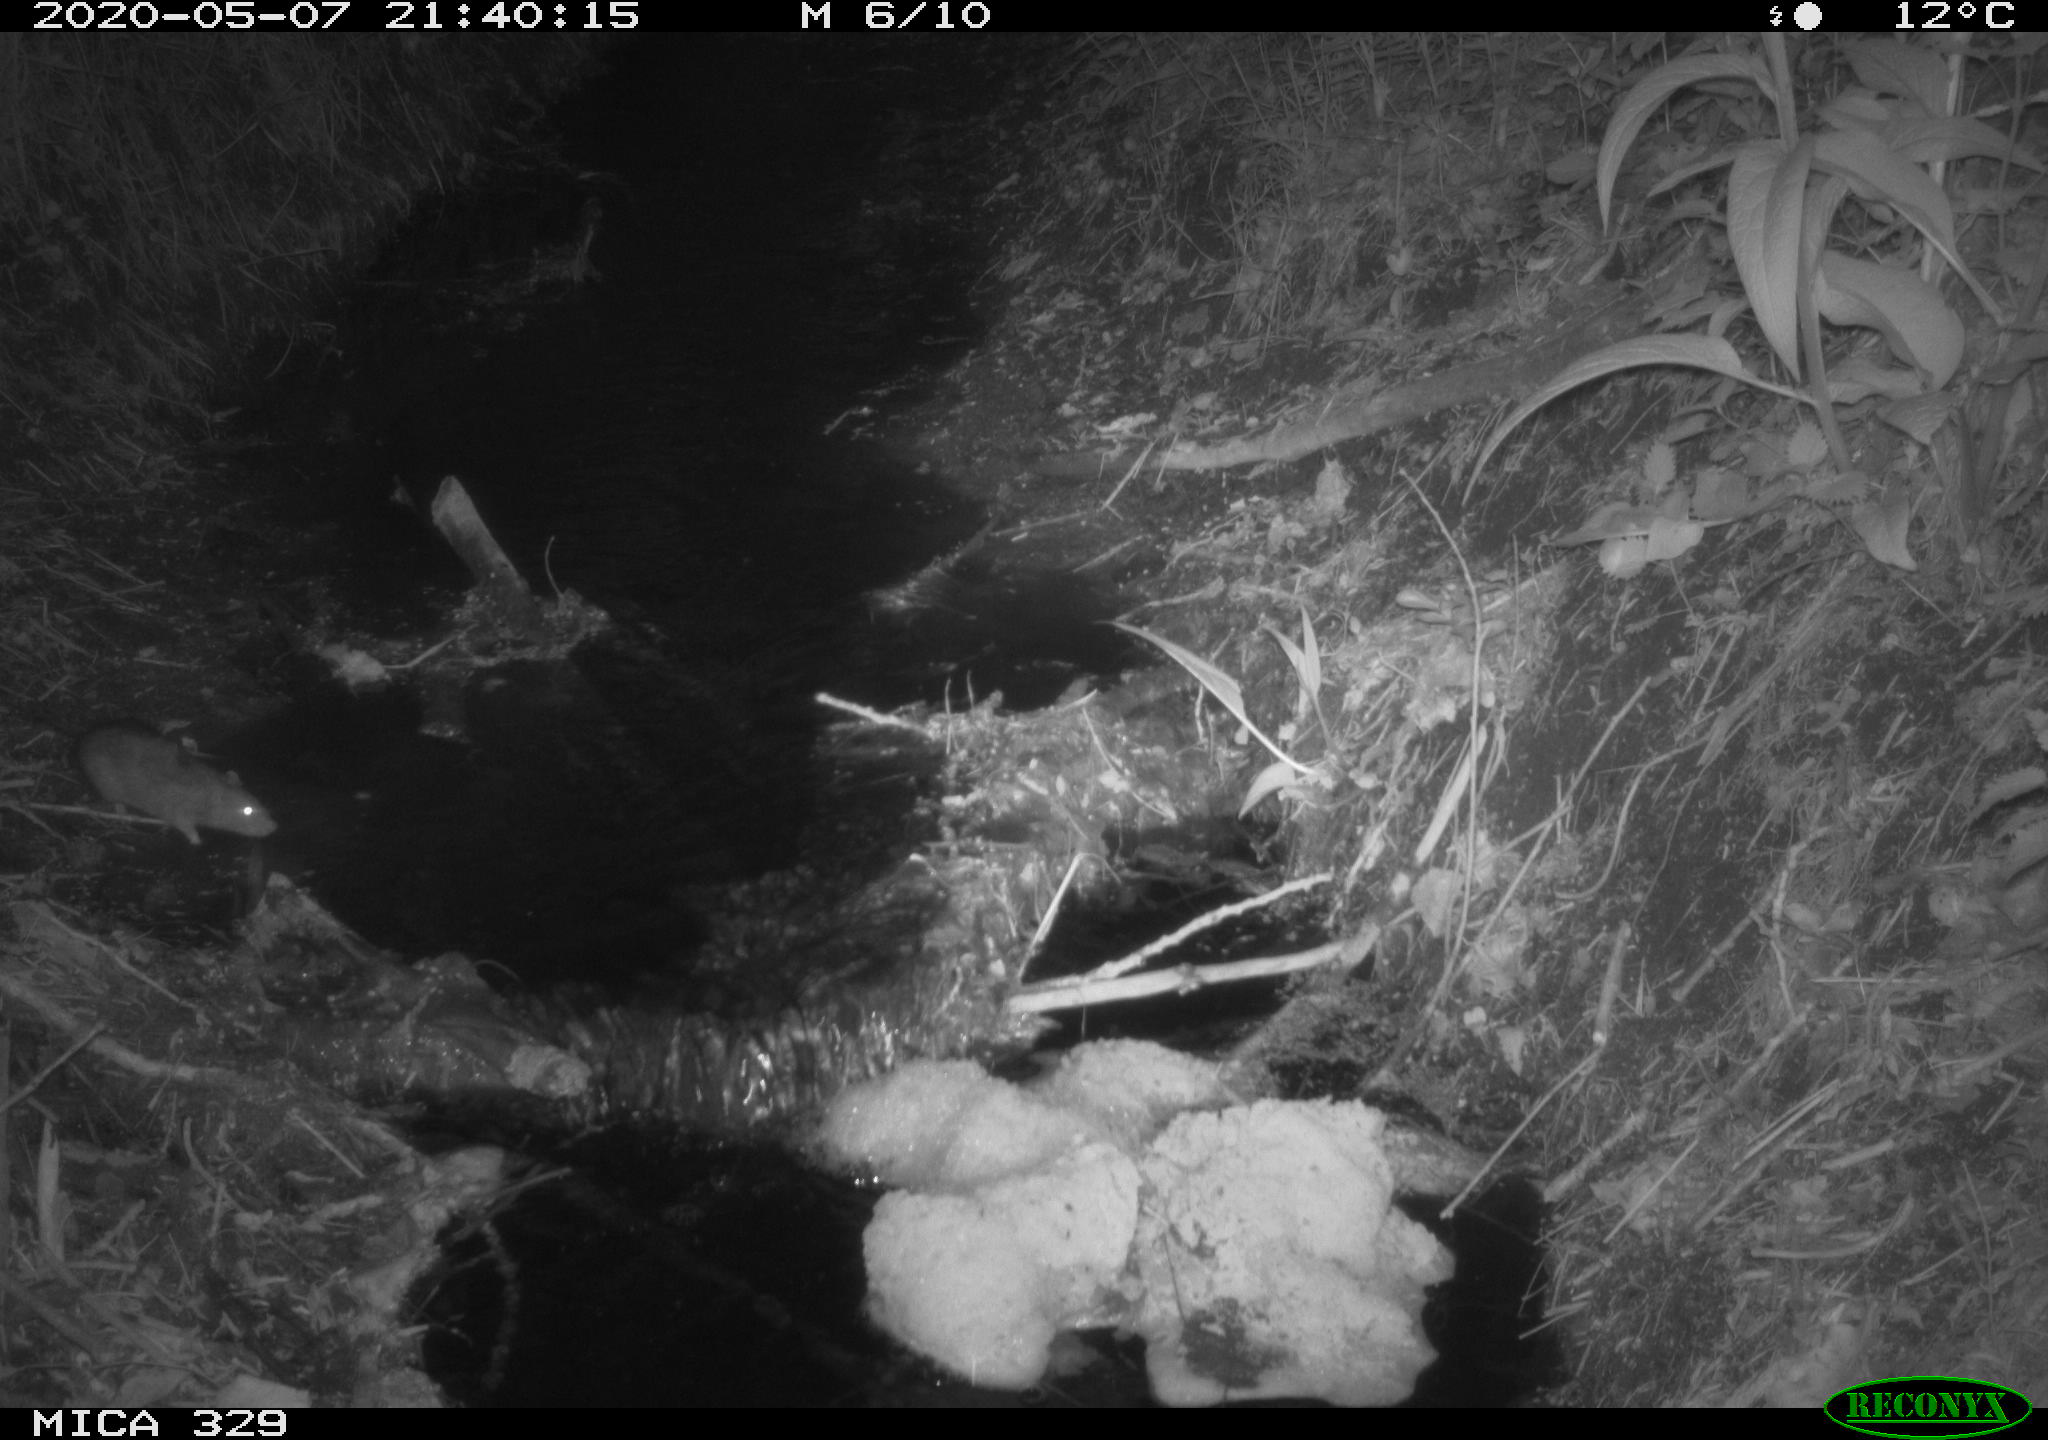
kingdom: Animalia
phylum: Chordata
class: Mammalia
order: Rodentia
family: Muridae
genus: Rattus
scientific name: Rattus norvegicus
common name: Brown rat
